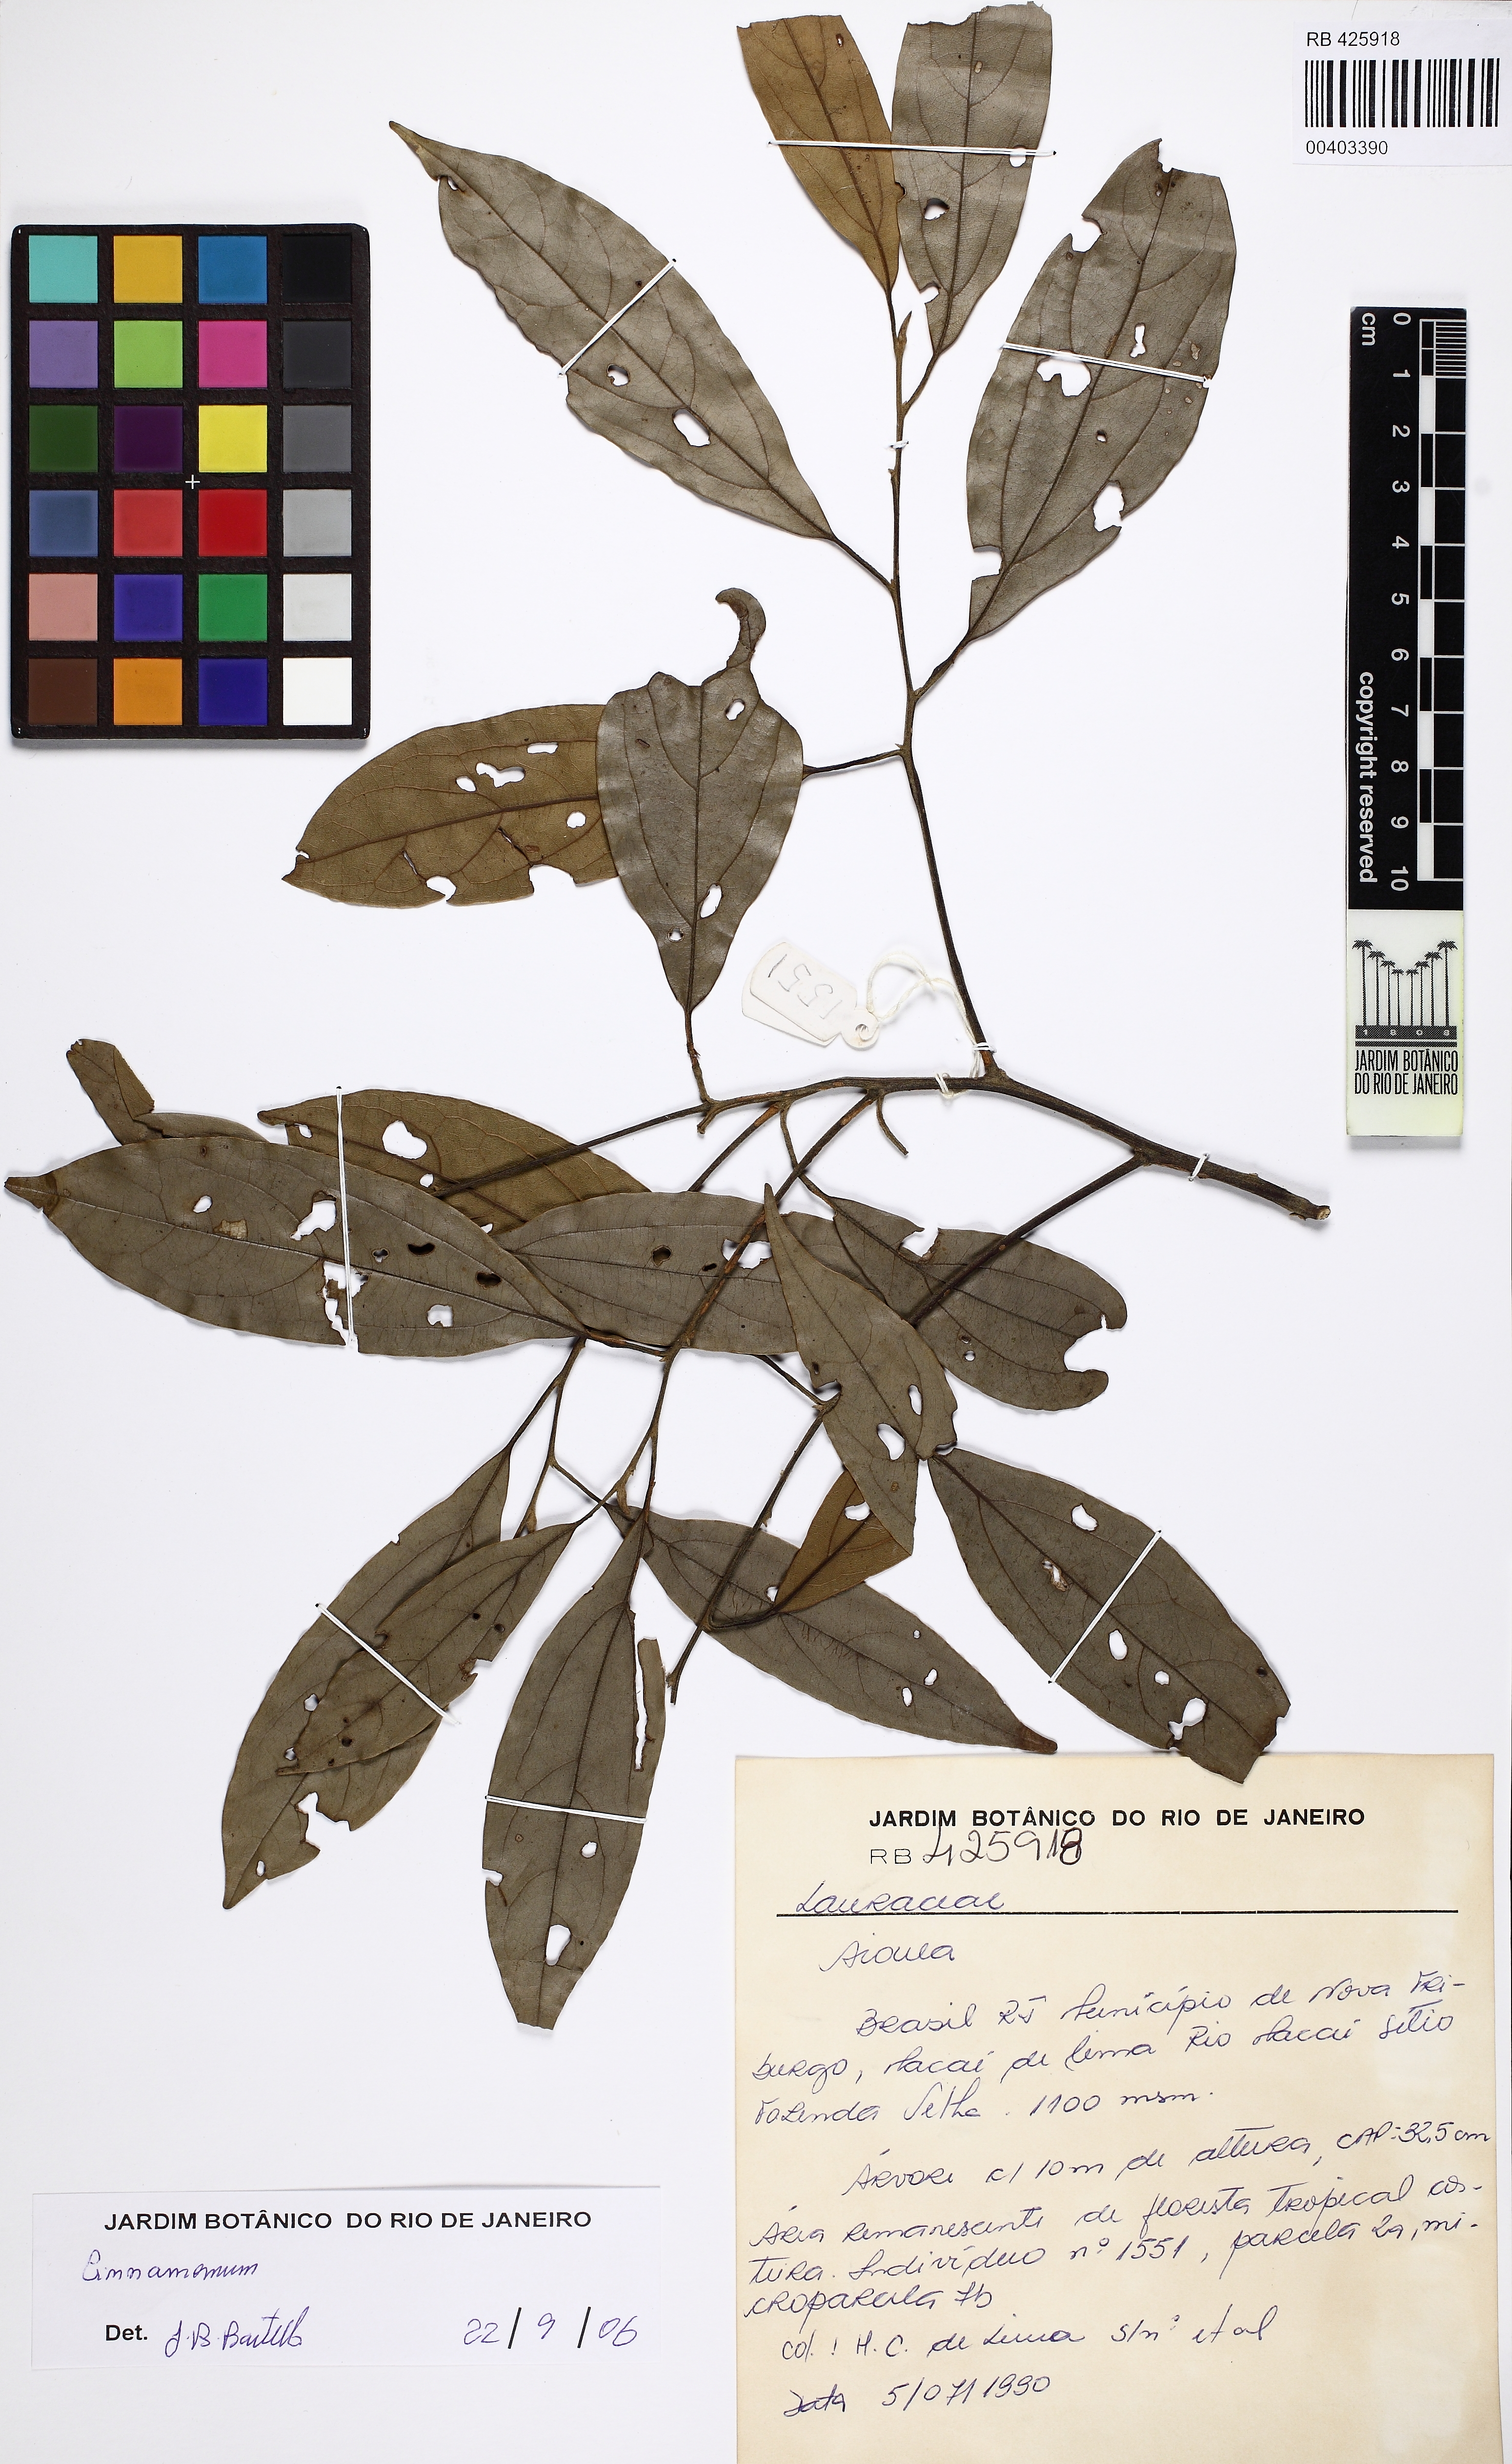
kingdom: Plantae
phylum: Tracheophyta
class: Magnoliopsida
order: Laurales
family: Lauraceae
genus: Cinnamomum
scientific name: Cinnamomum
